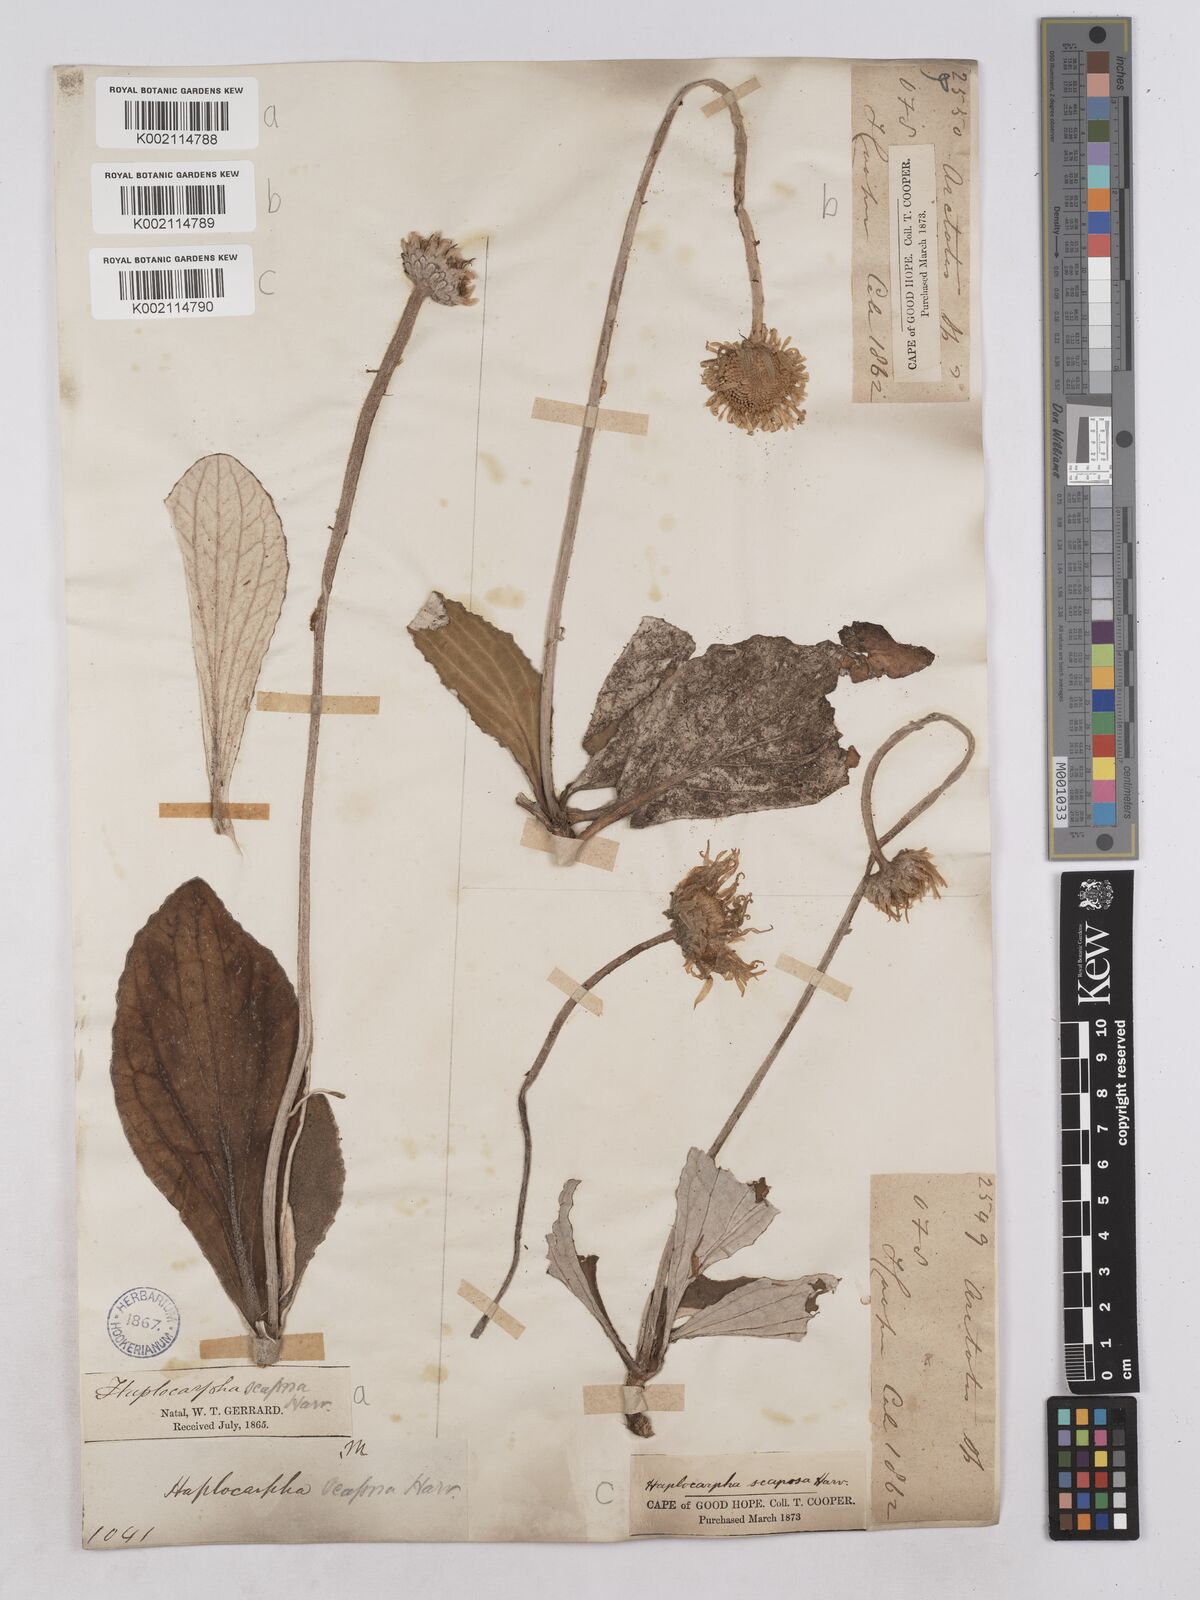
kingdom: Plantae
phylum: Tracheophyta
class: Magnoliopsida
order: Asterales
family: Asteraceae
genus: Haplocarpha
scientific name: Haplocarpha scaposa
